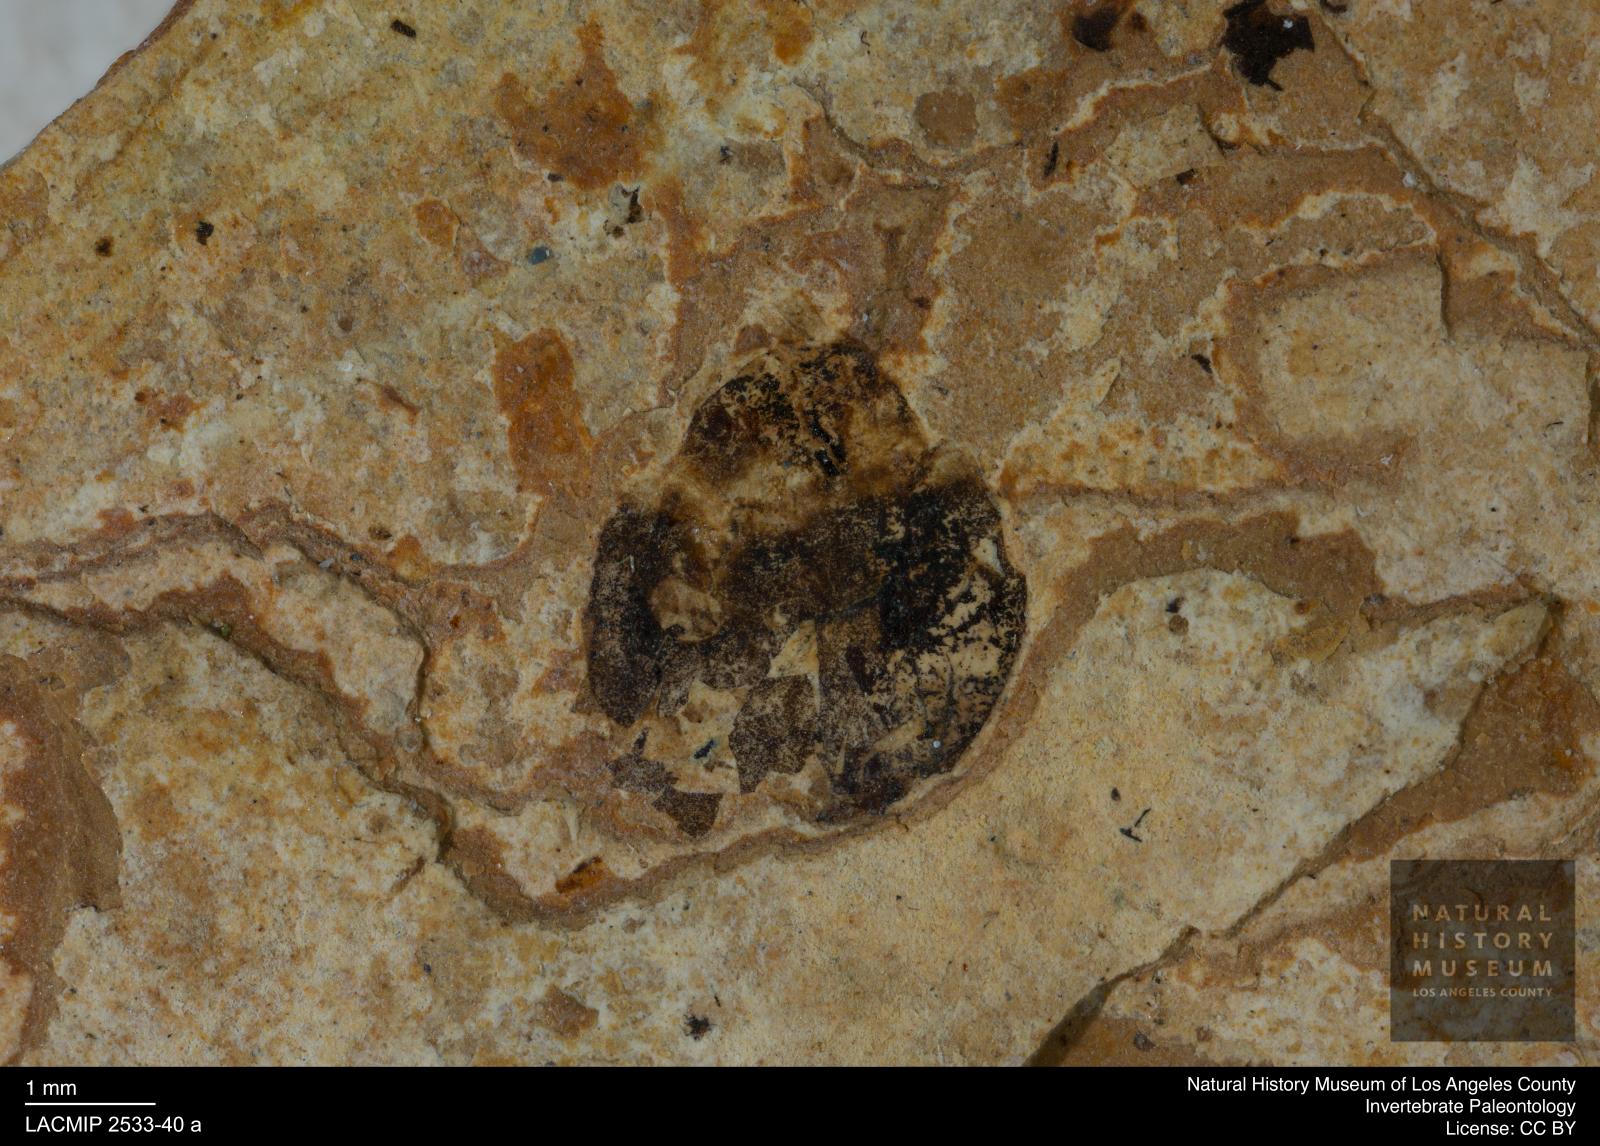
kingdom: Animalia
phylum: Arthropoda
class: Insecta
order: Blattodea
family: Hodotermitidae
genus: Ulmeriella
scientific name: Ulmeriella bauckhorni
